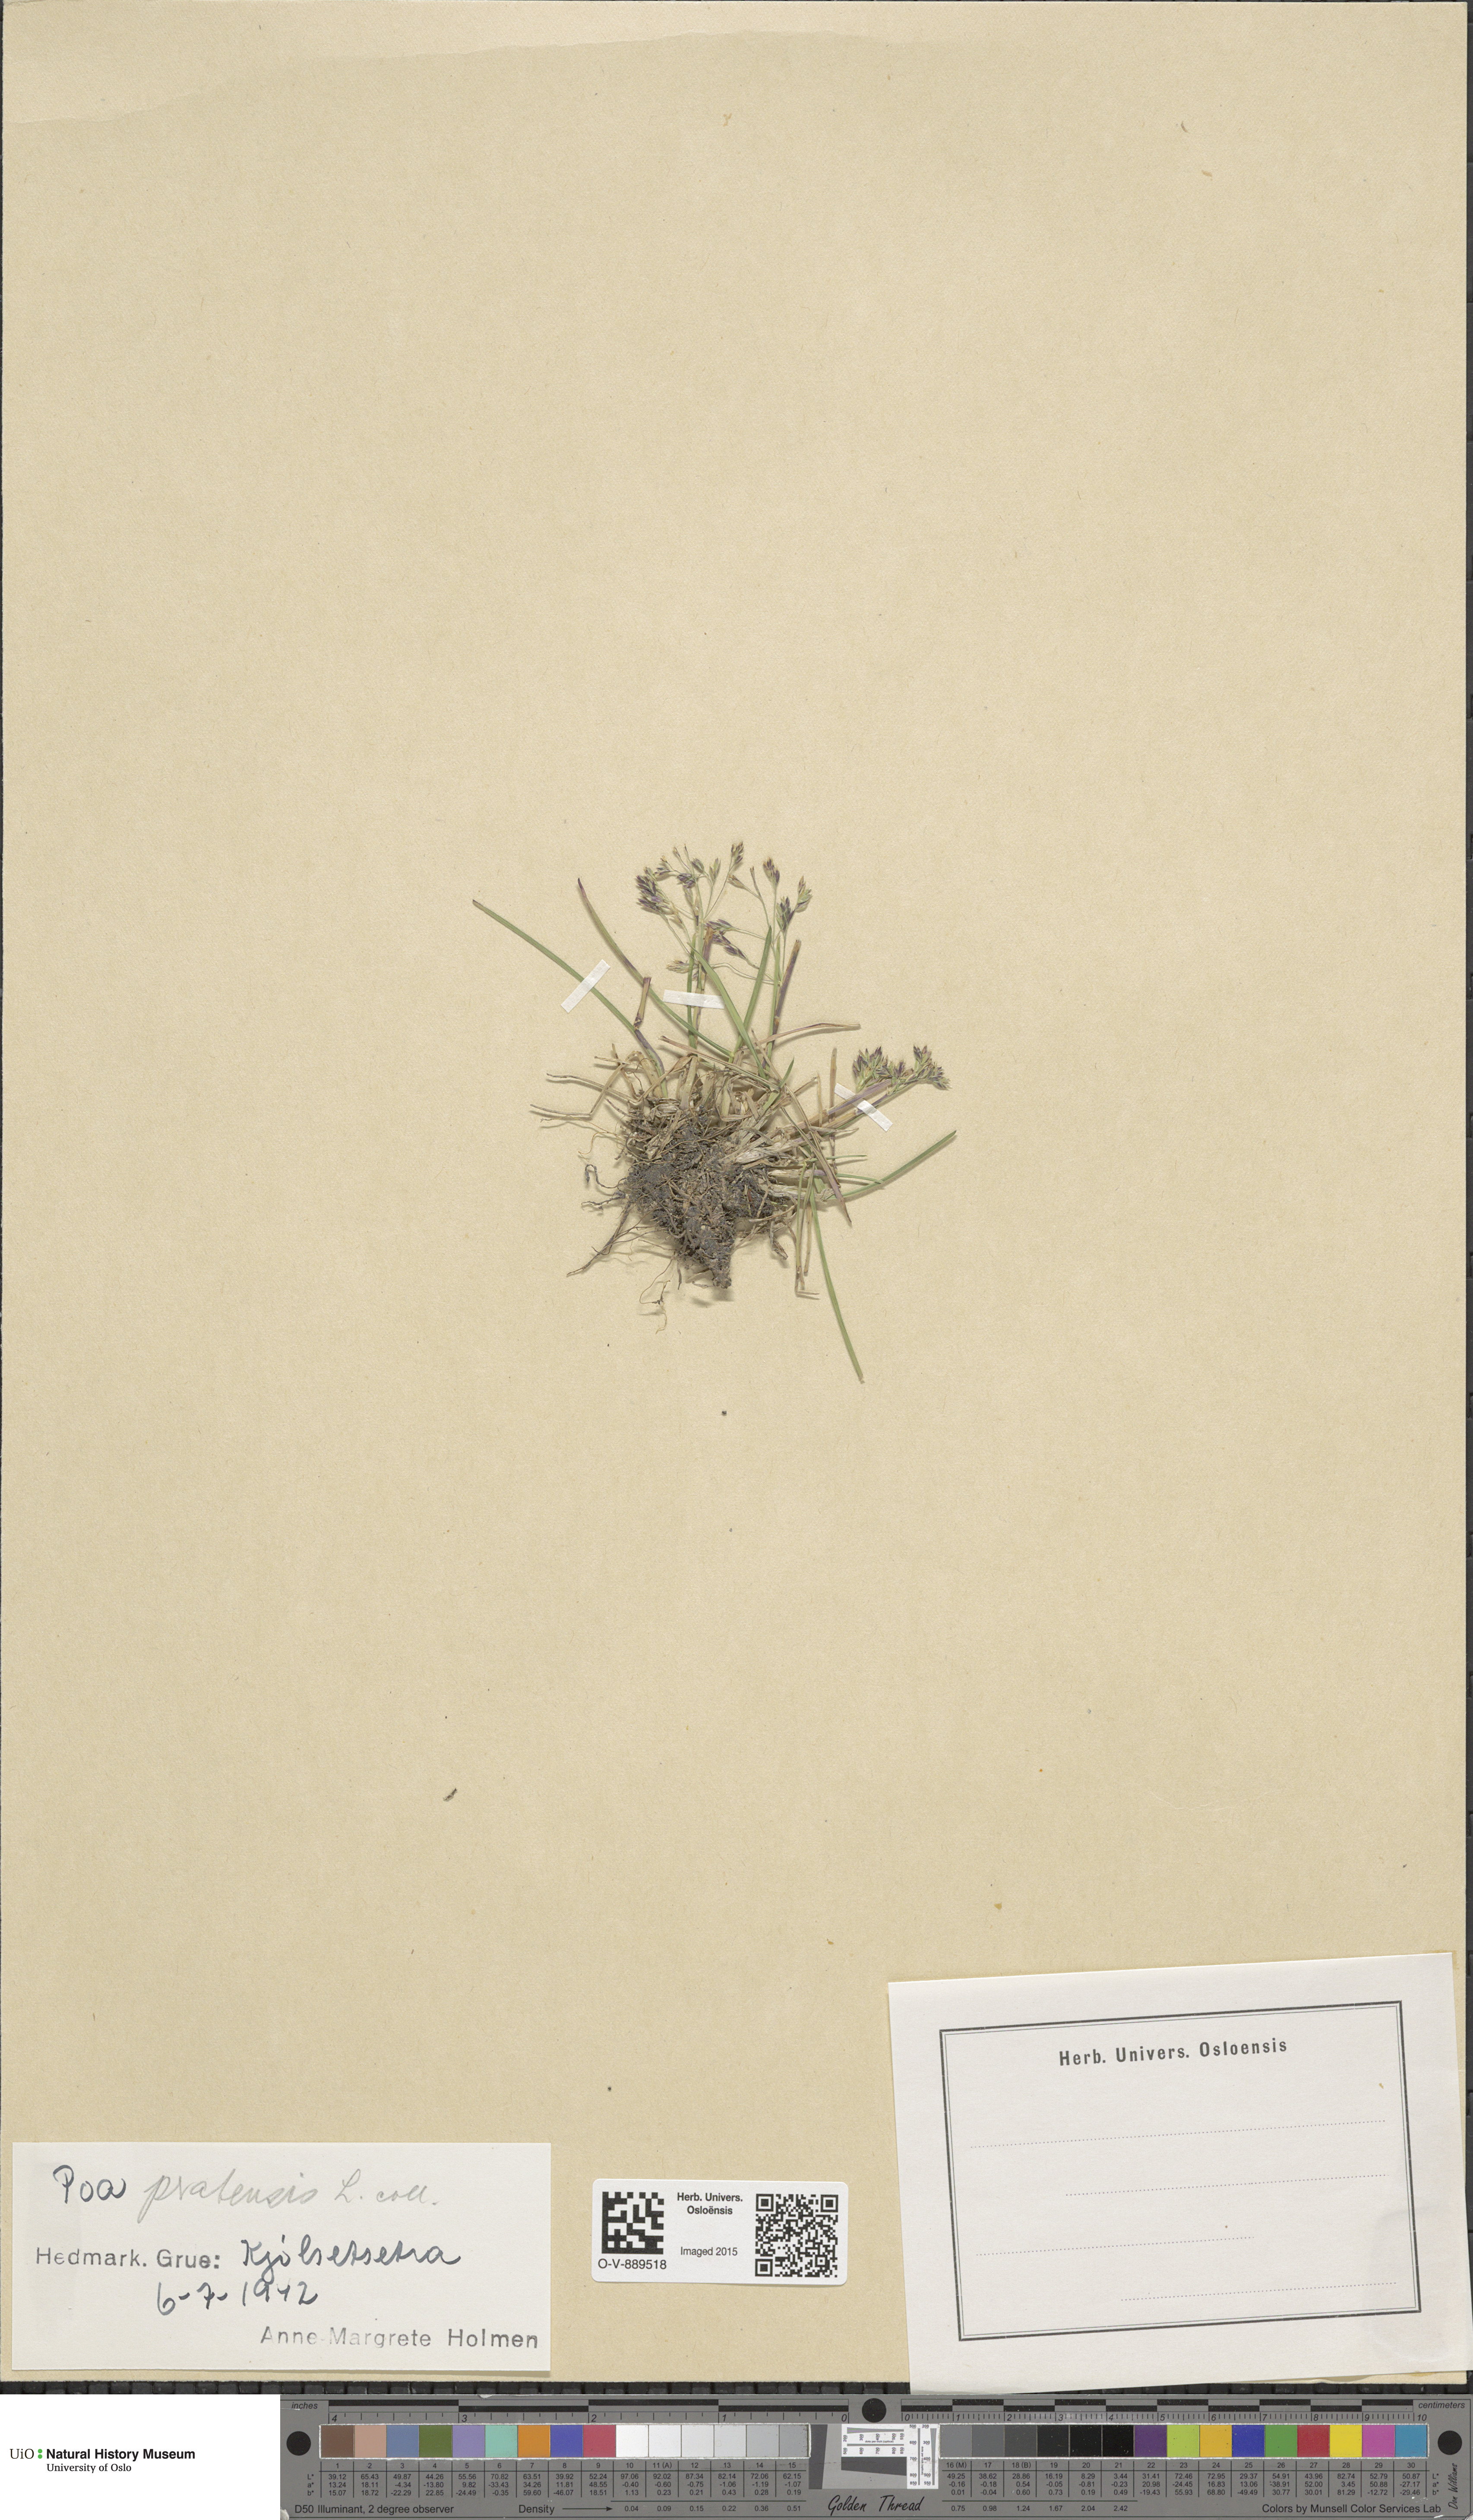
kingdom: Plantae
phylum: Tracheophyta
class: Liliopsida
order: Poales
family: Poaceae
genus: Poa
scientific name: Poa pratensis
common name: Kentucky bluegrass
